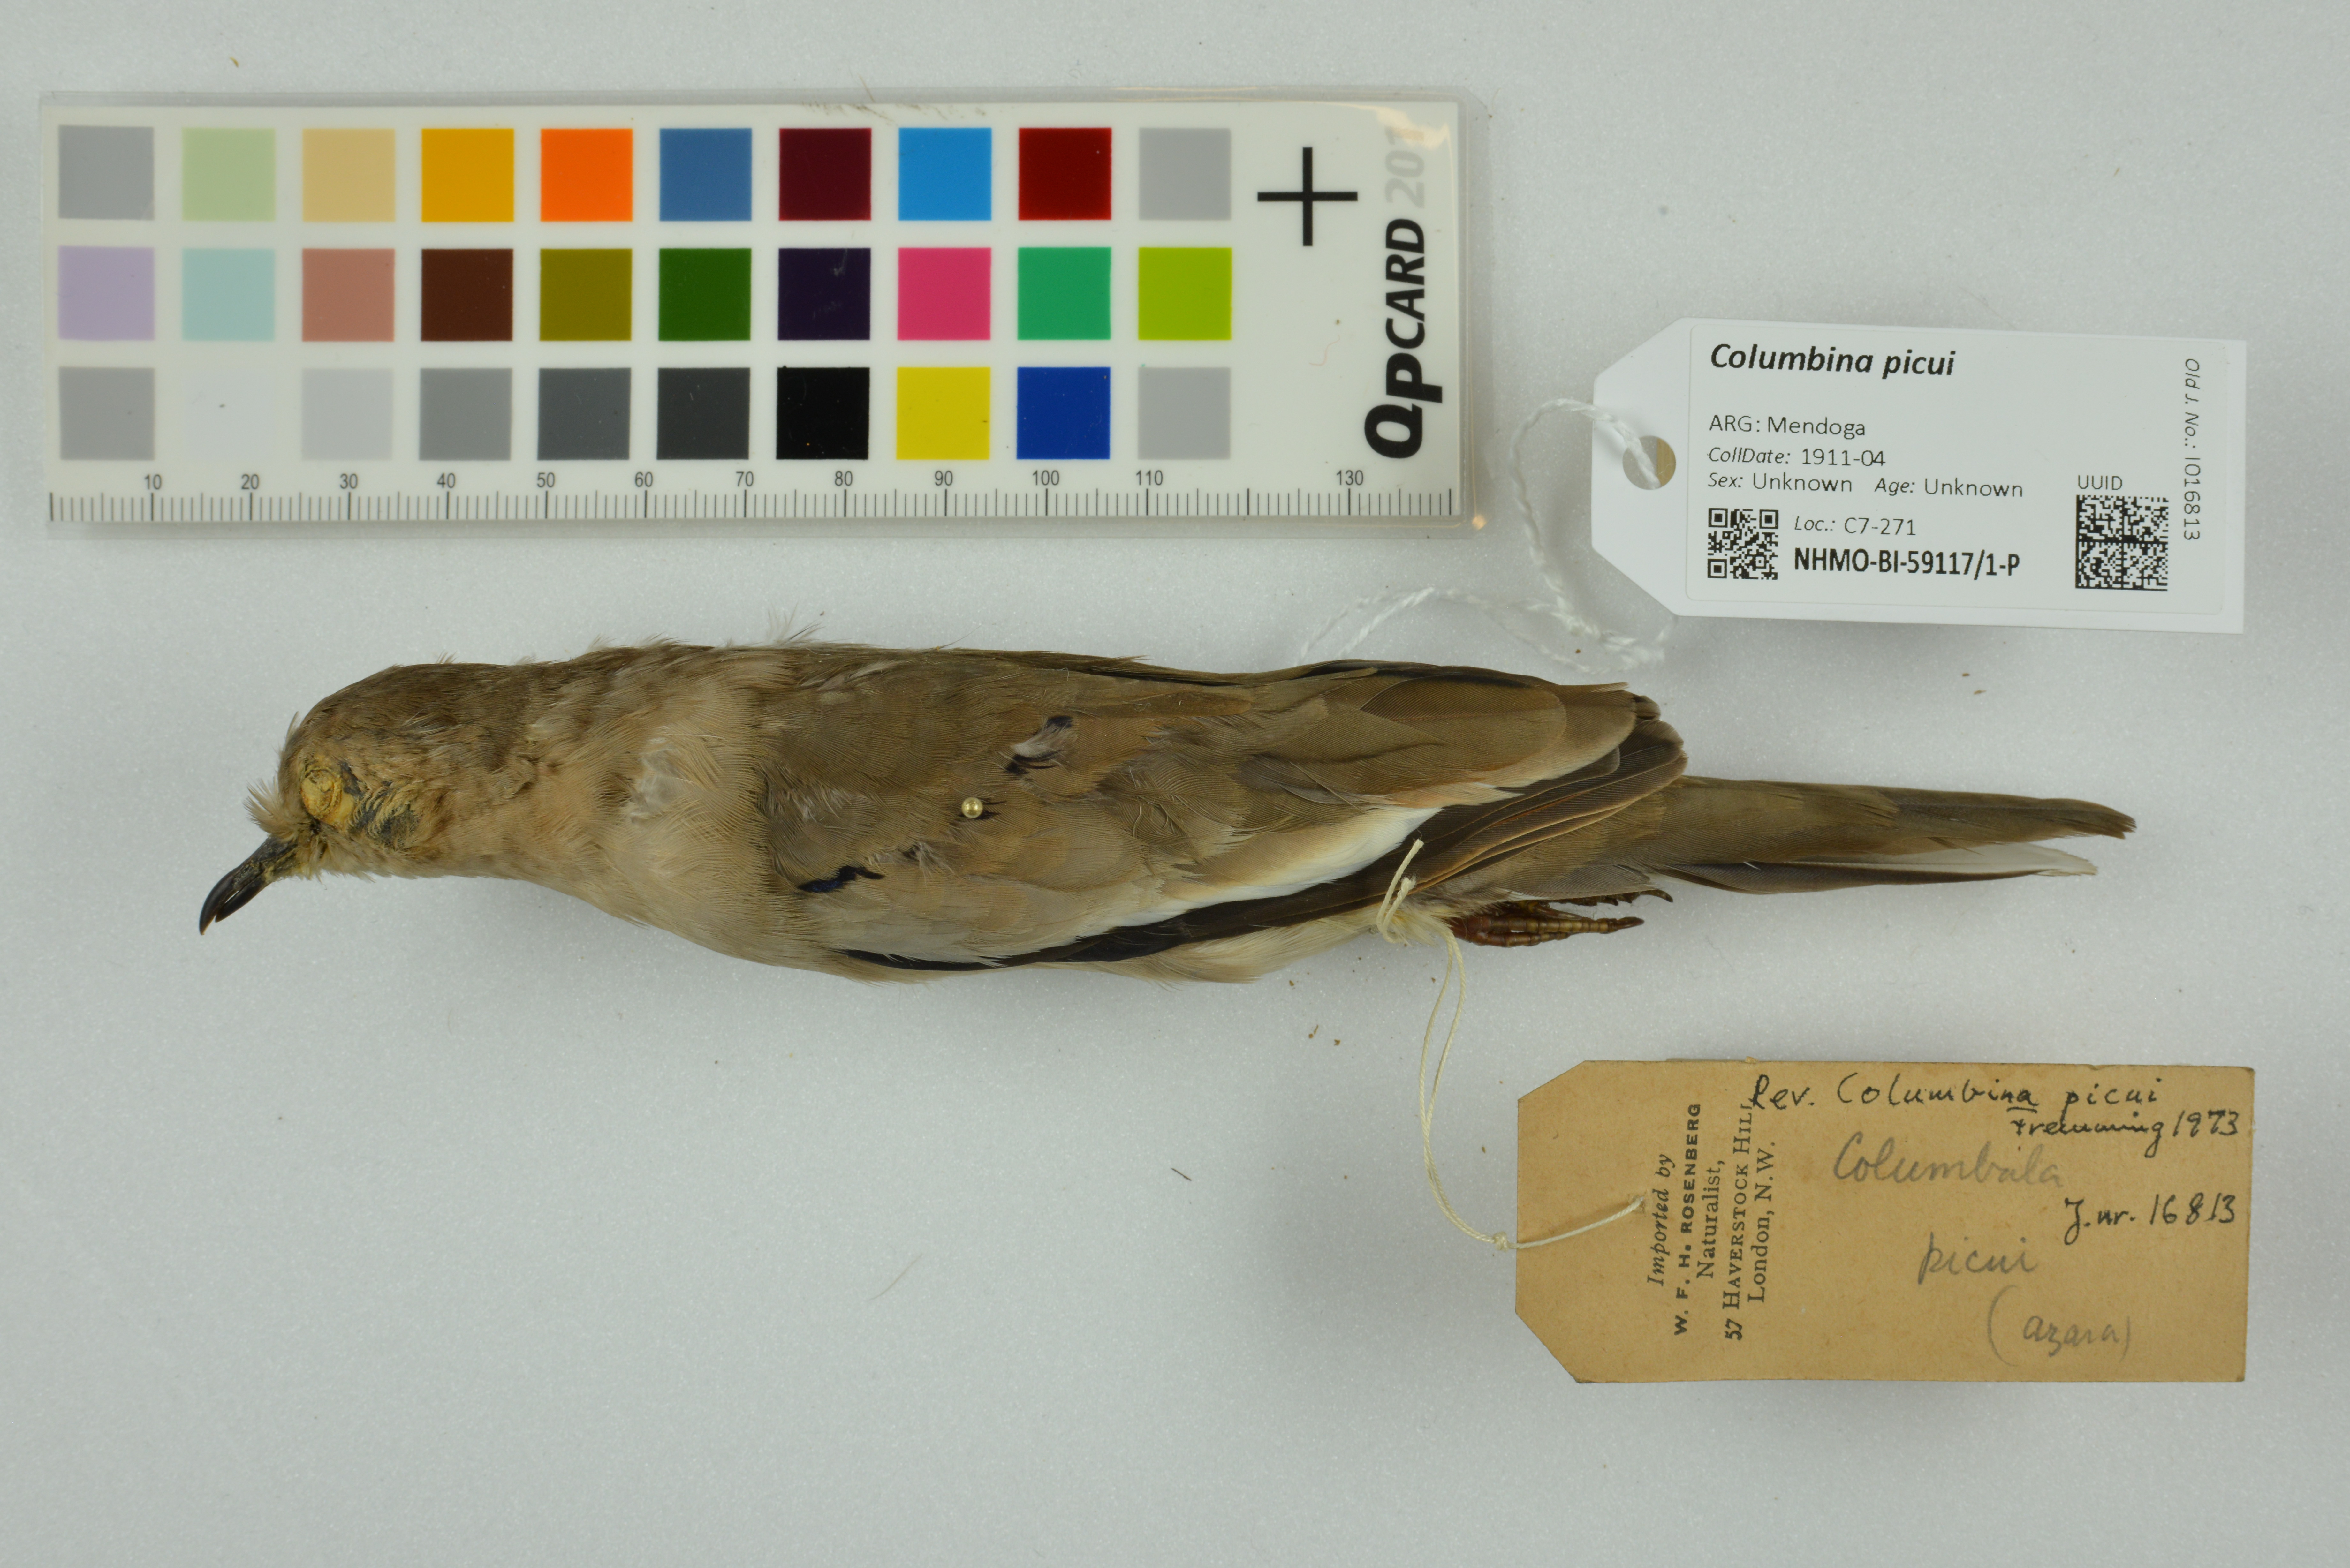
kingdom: Animalia
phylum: Chordata
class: Aves
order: Columbiformes
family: Columbidae
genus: Columbina
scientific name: Columbina picui
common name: Picui ground dove
